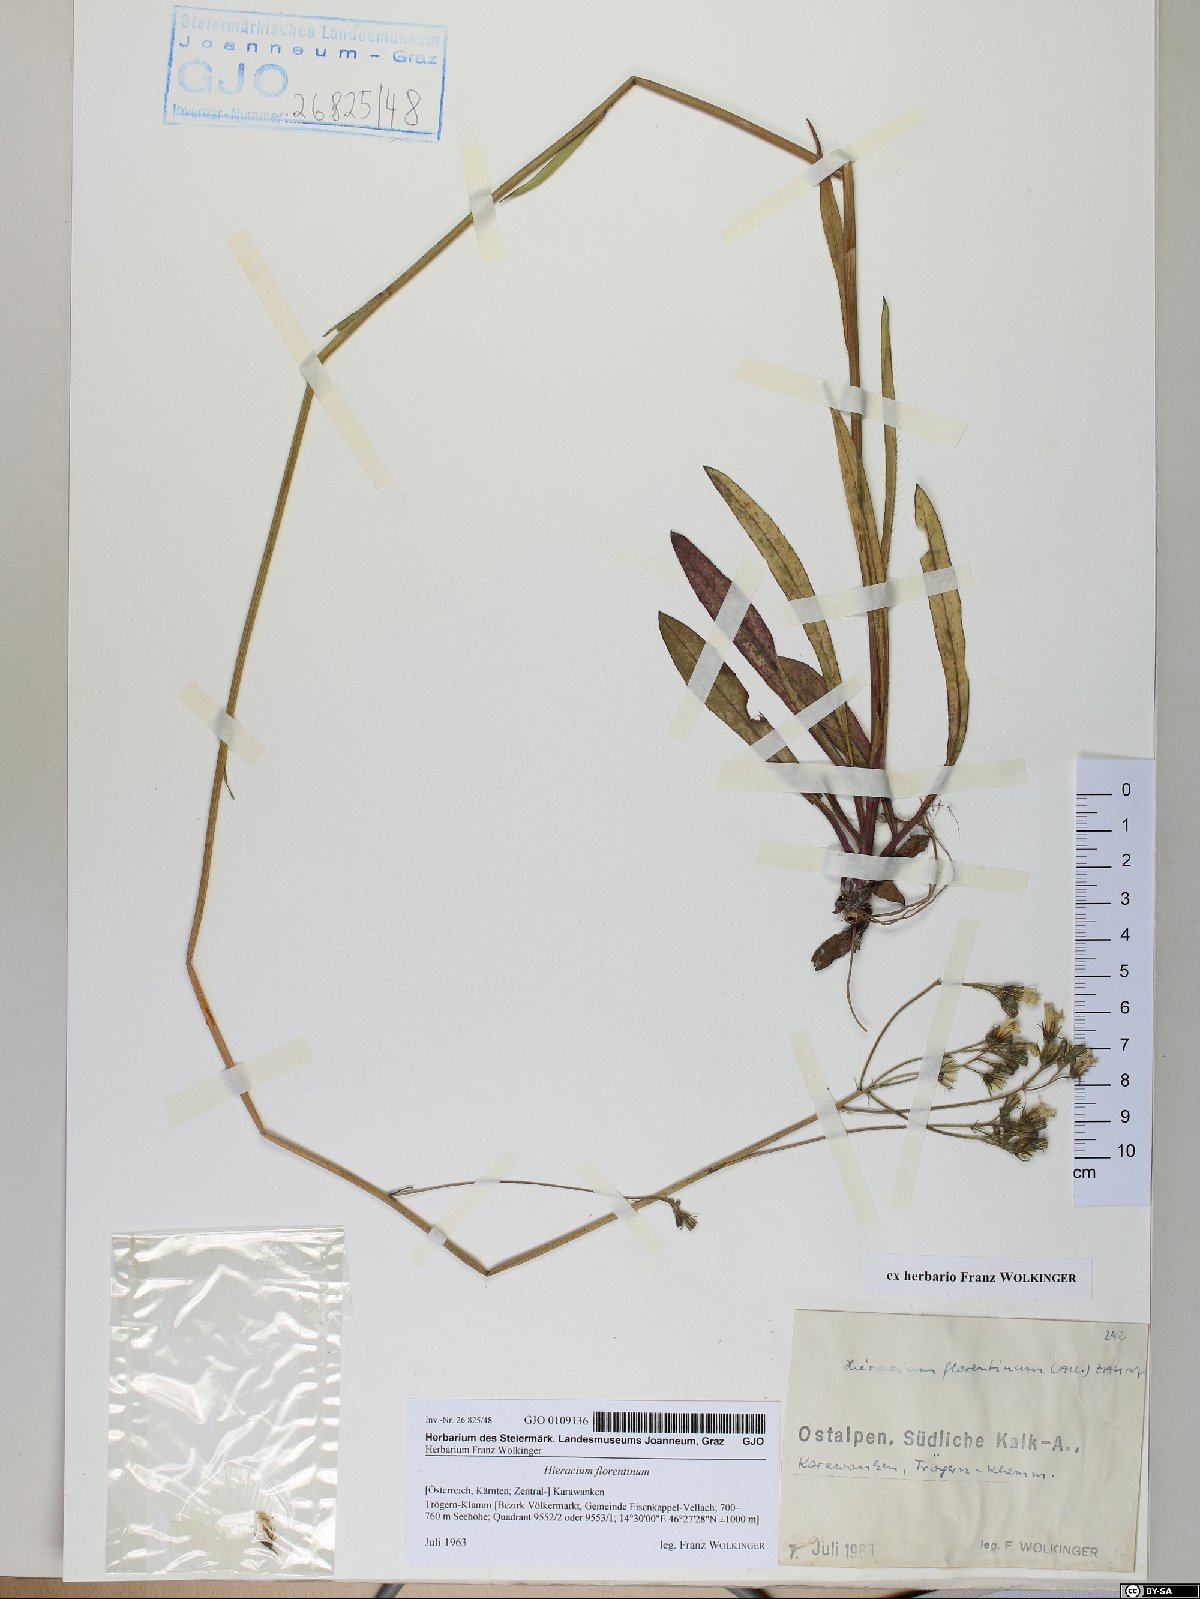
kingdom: Plantae
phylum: Tracheophyta
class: Magnoliopsida
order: Asterales
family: Asteraceae
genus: Pilosella
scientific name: Pilosella piloselloides
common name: Glaucous king-devil
